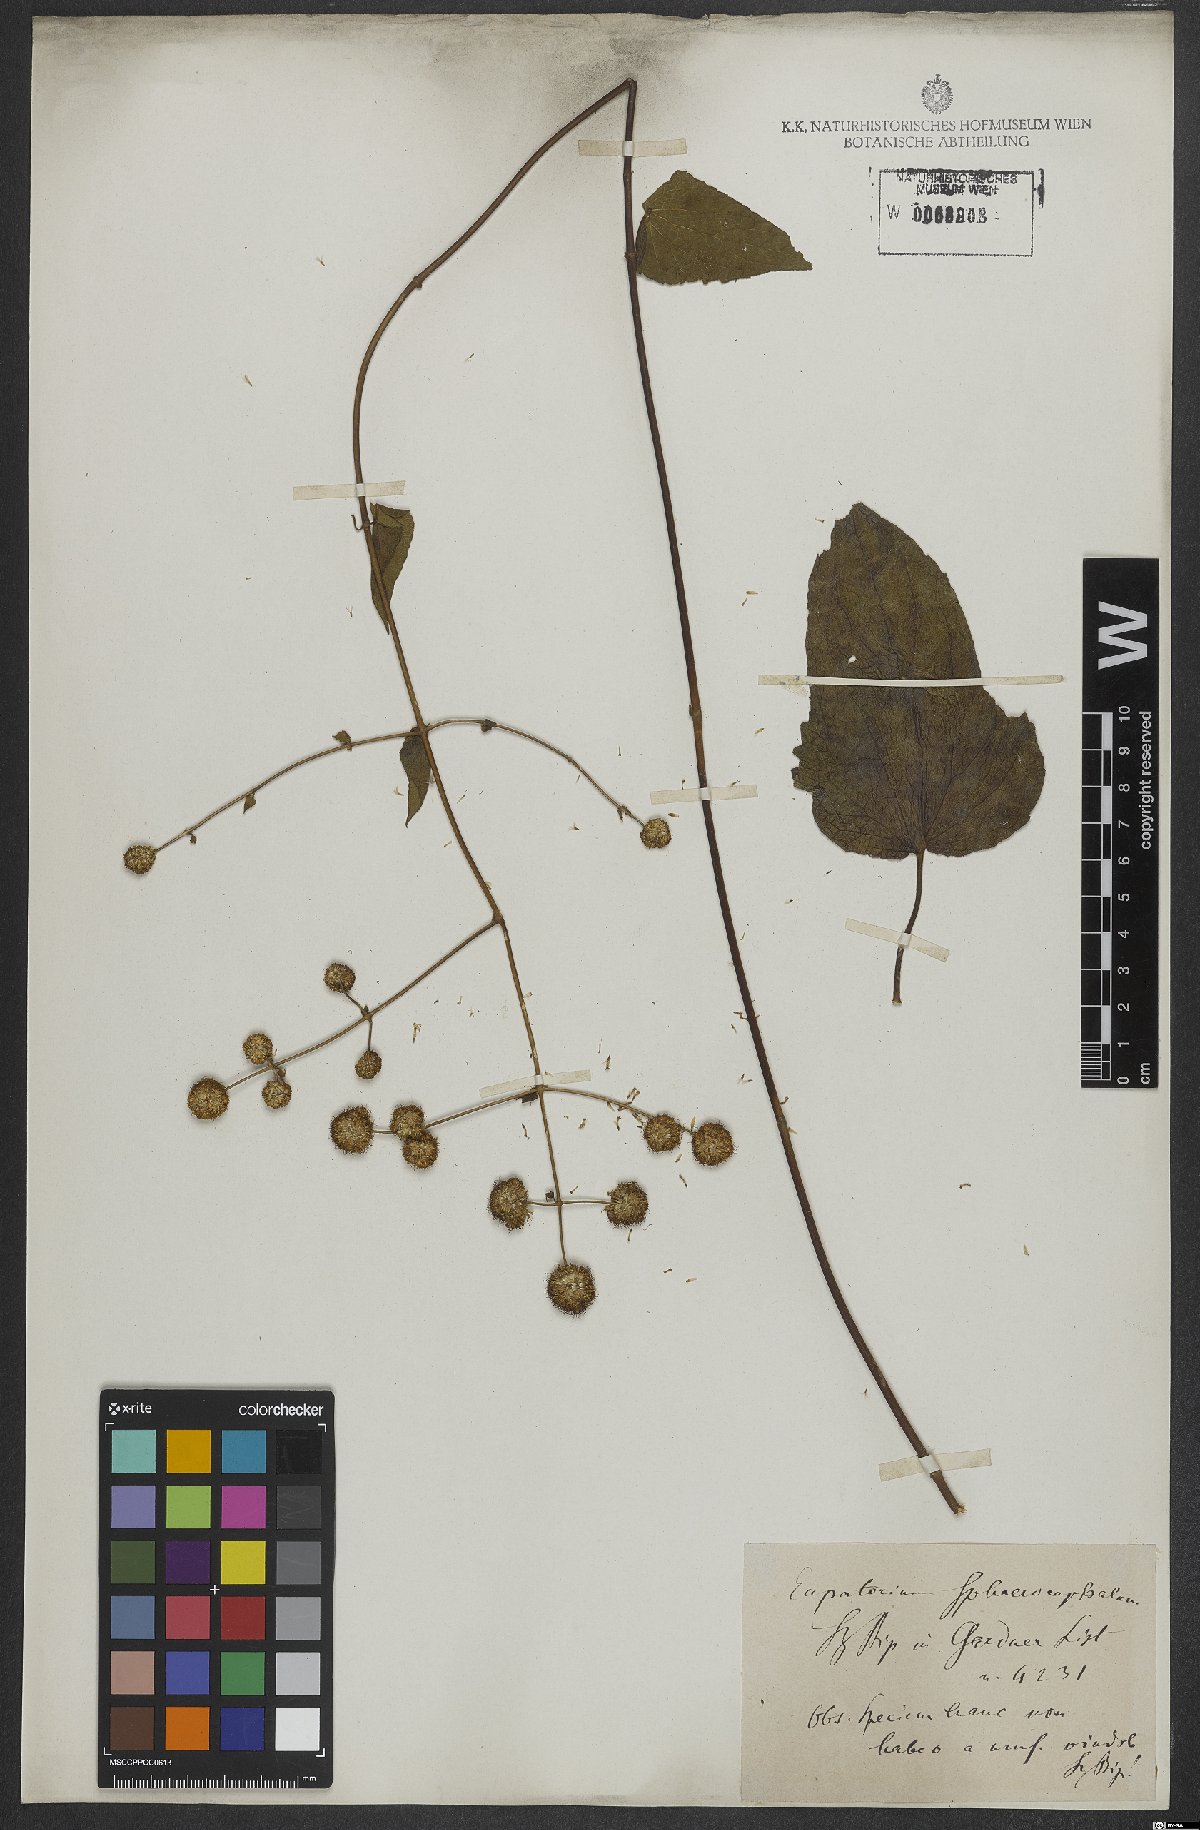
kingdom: Plantae
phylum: Tracheophyta
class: Magnoliopsida
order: Asterales
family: Asteraceae
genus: Sphaereupatorium
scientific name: Sphaereupatorium scandens
